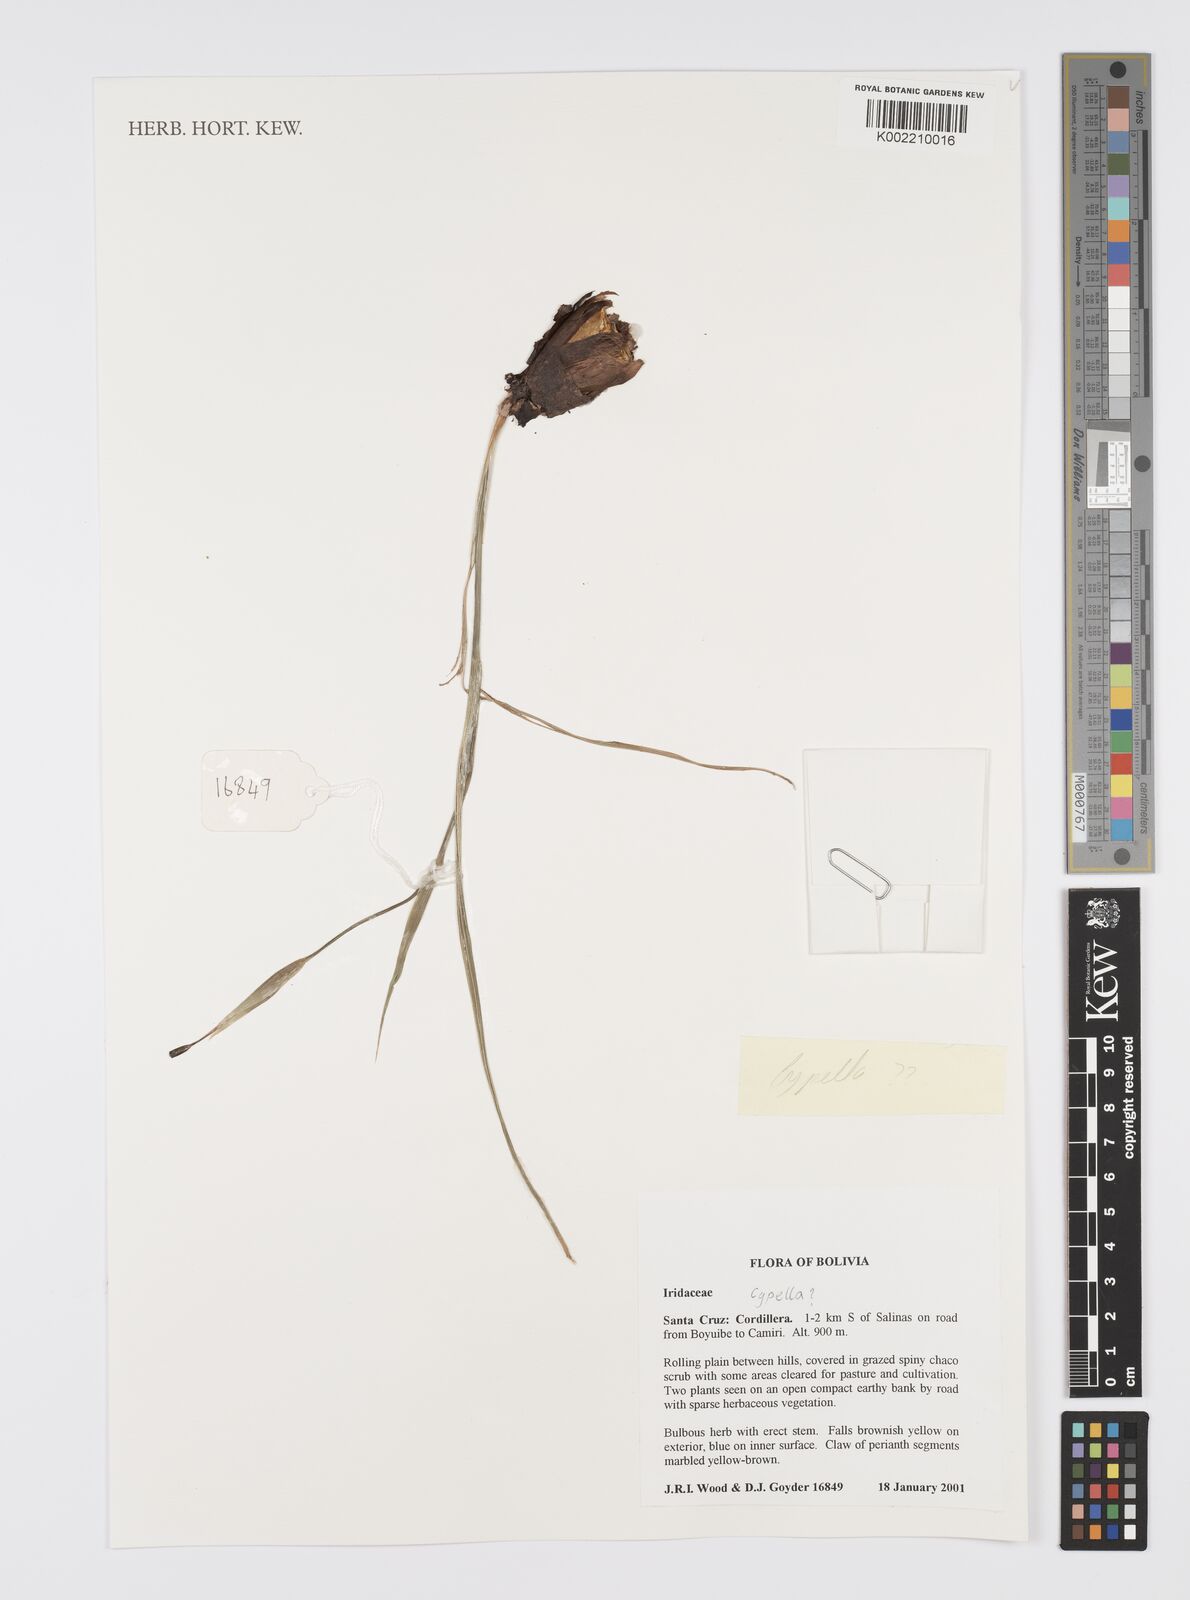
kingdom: Plantae
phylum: Tracheophyta
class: Liliopsida
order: Asparagales
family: Iridaceae
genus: Cypella
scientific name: Cypella
